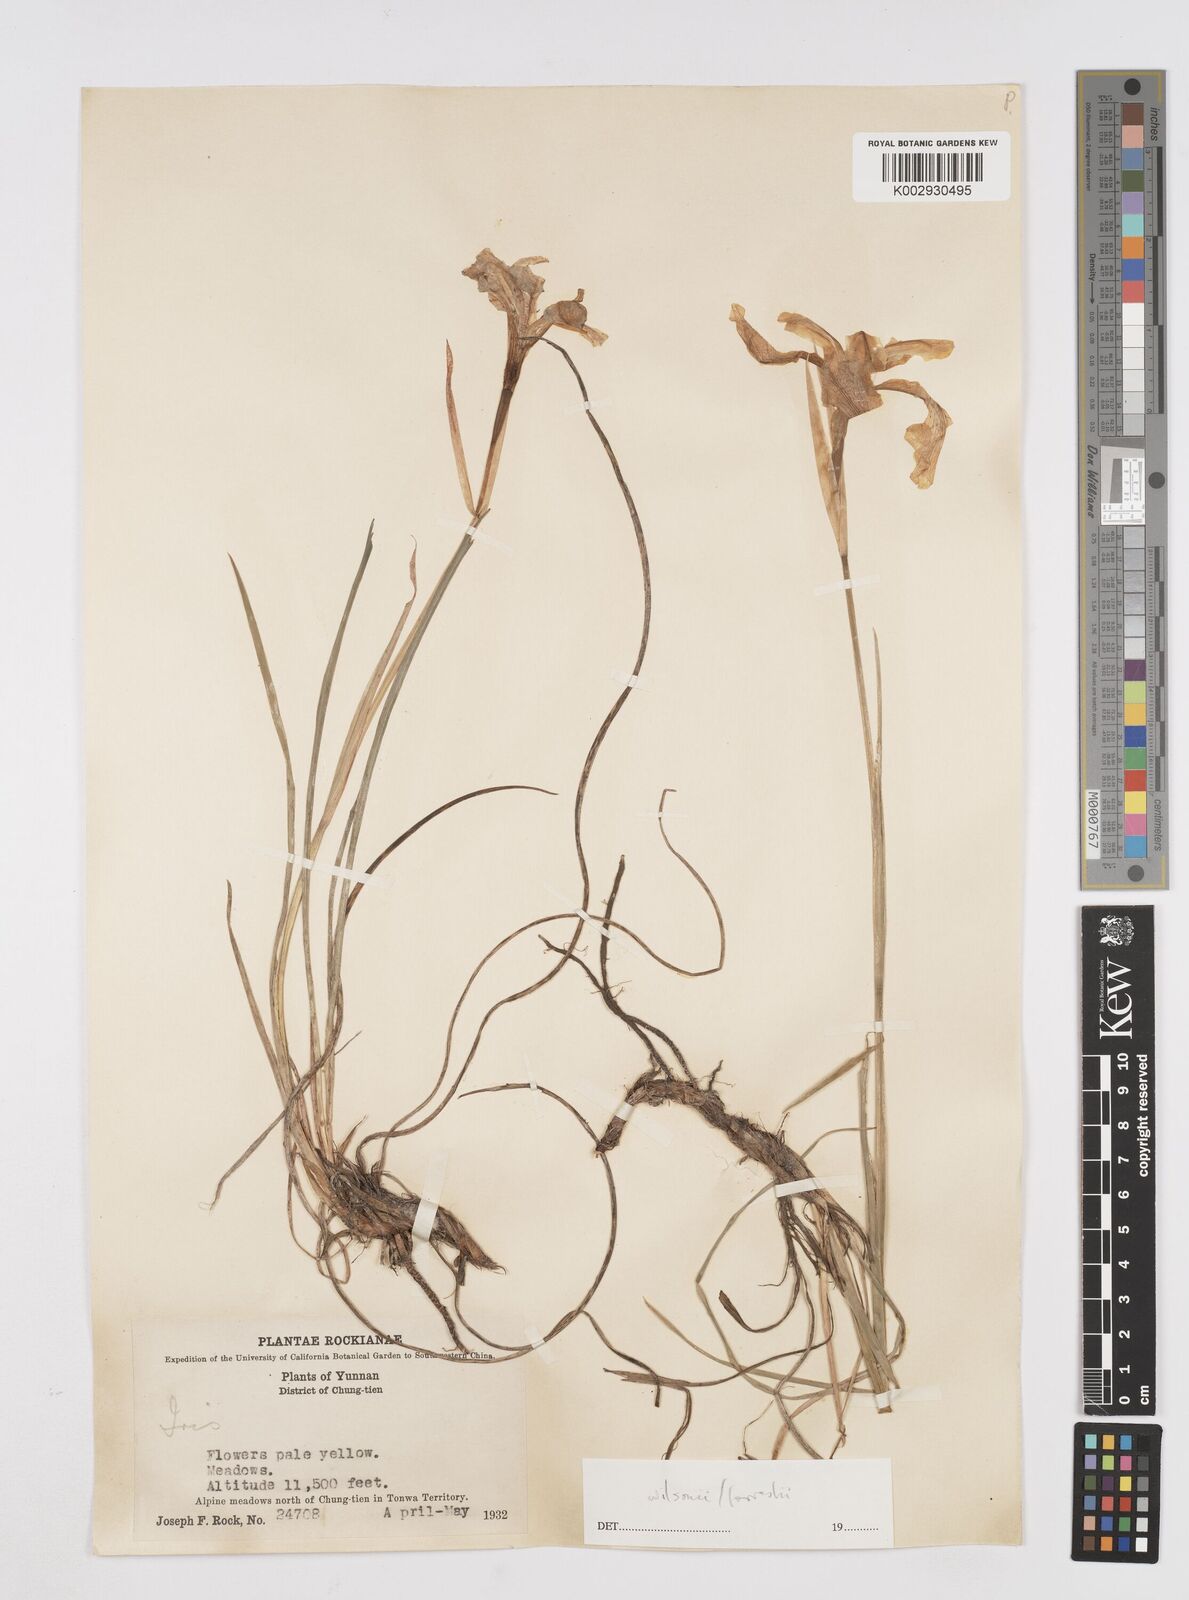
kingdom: Plantae
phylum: Tracheophyta
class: Liliopsida
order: Asparagales
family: Iridaceae
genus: Iris
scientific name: Iris wilsonii
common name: Yellow-flower iris
